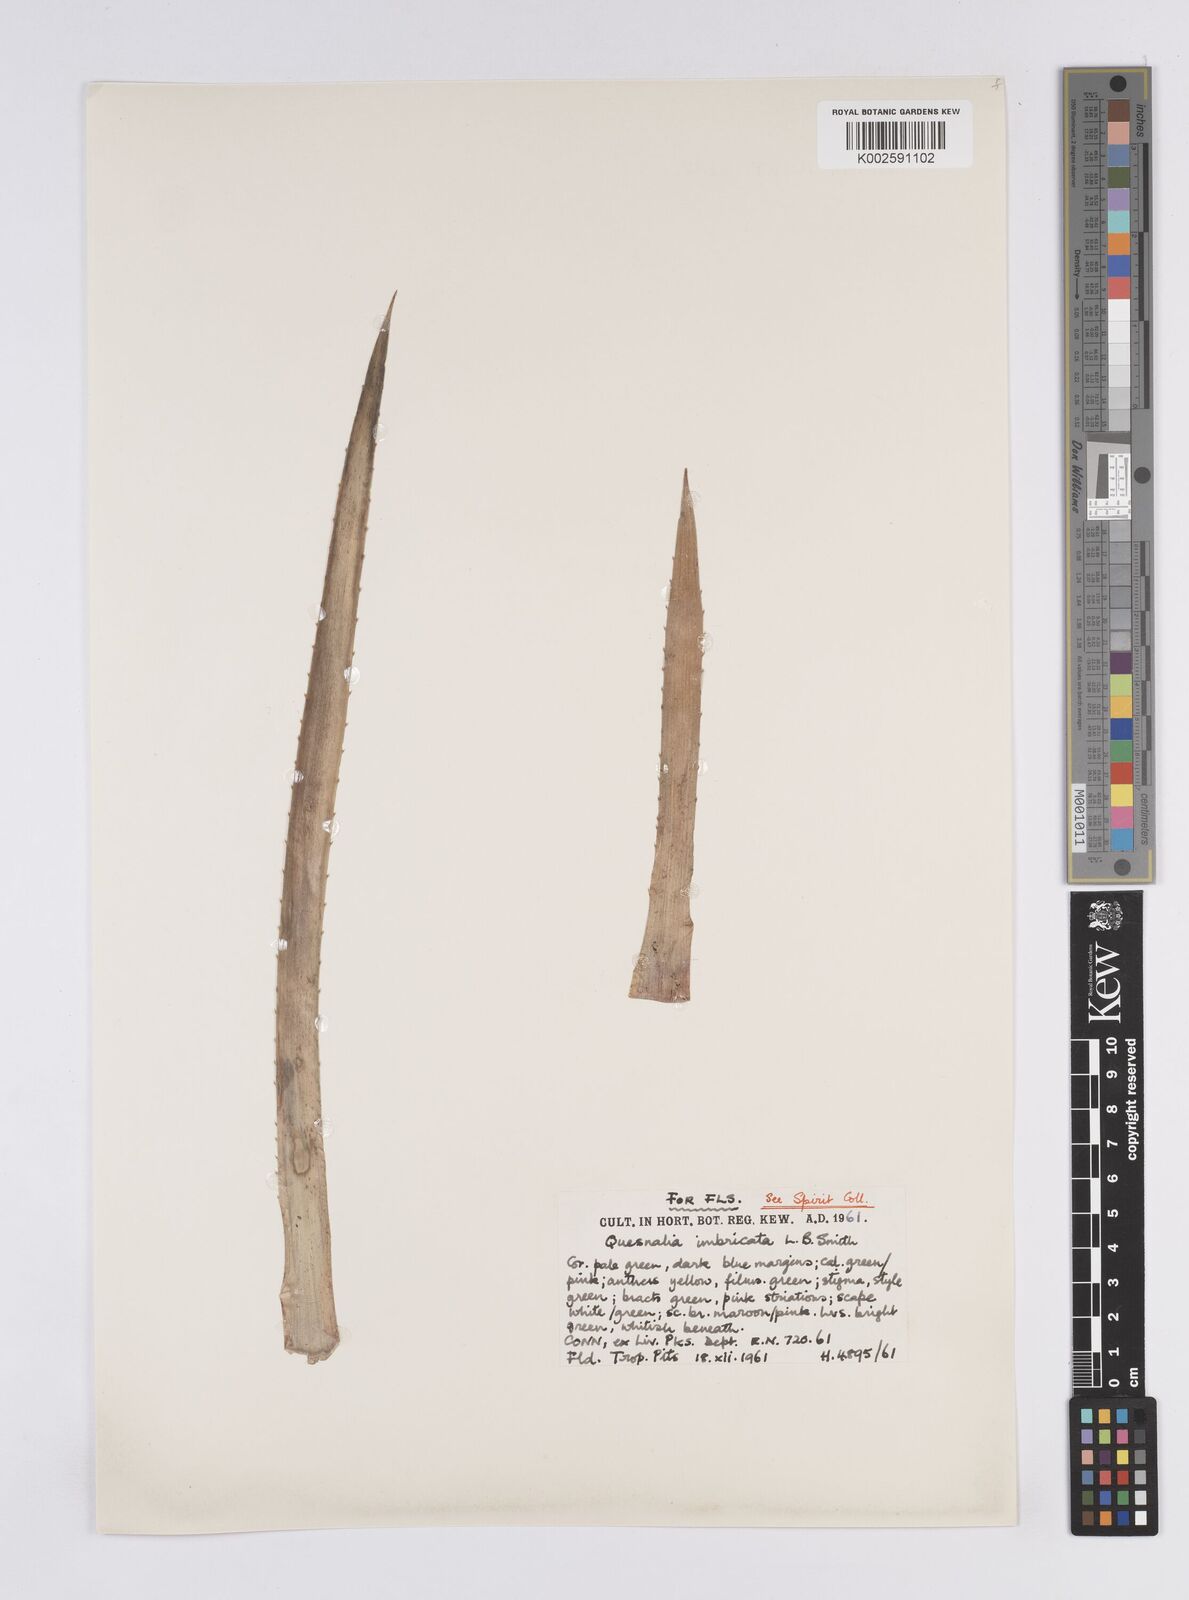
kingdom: Plantae
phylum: Tracheophyta
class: Liliopsida
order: Poales
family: Bromeliaceae
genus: Quesnelia
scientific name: Quesnelia imbricata
